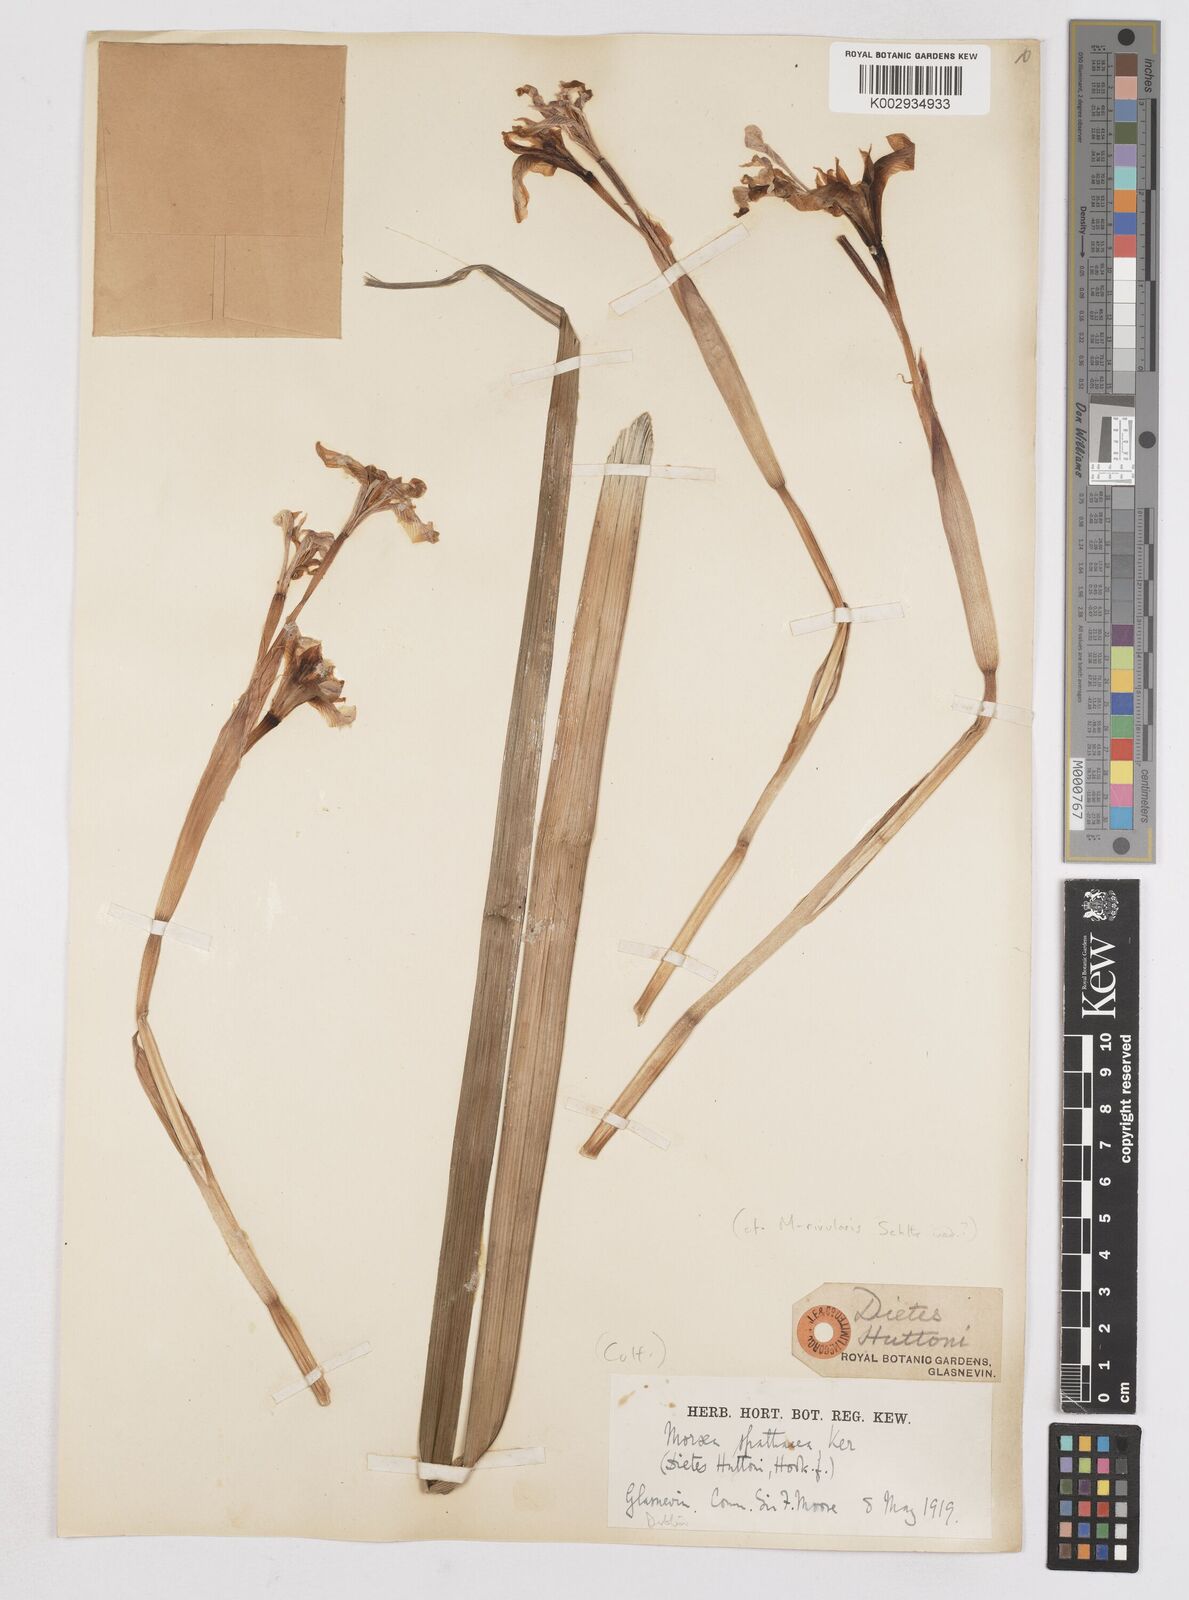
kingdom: Plantae
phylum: Tracheophyta
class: Liliopsida
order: Asparagales
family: Iridaceae
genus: Moraea
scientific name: Moraea huttonii
